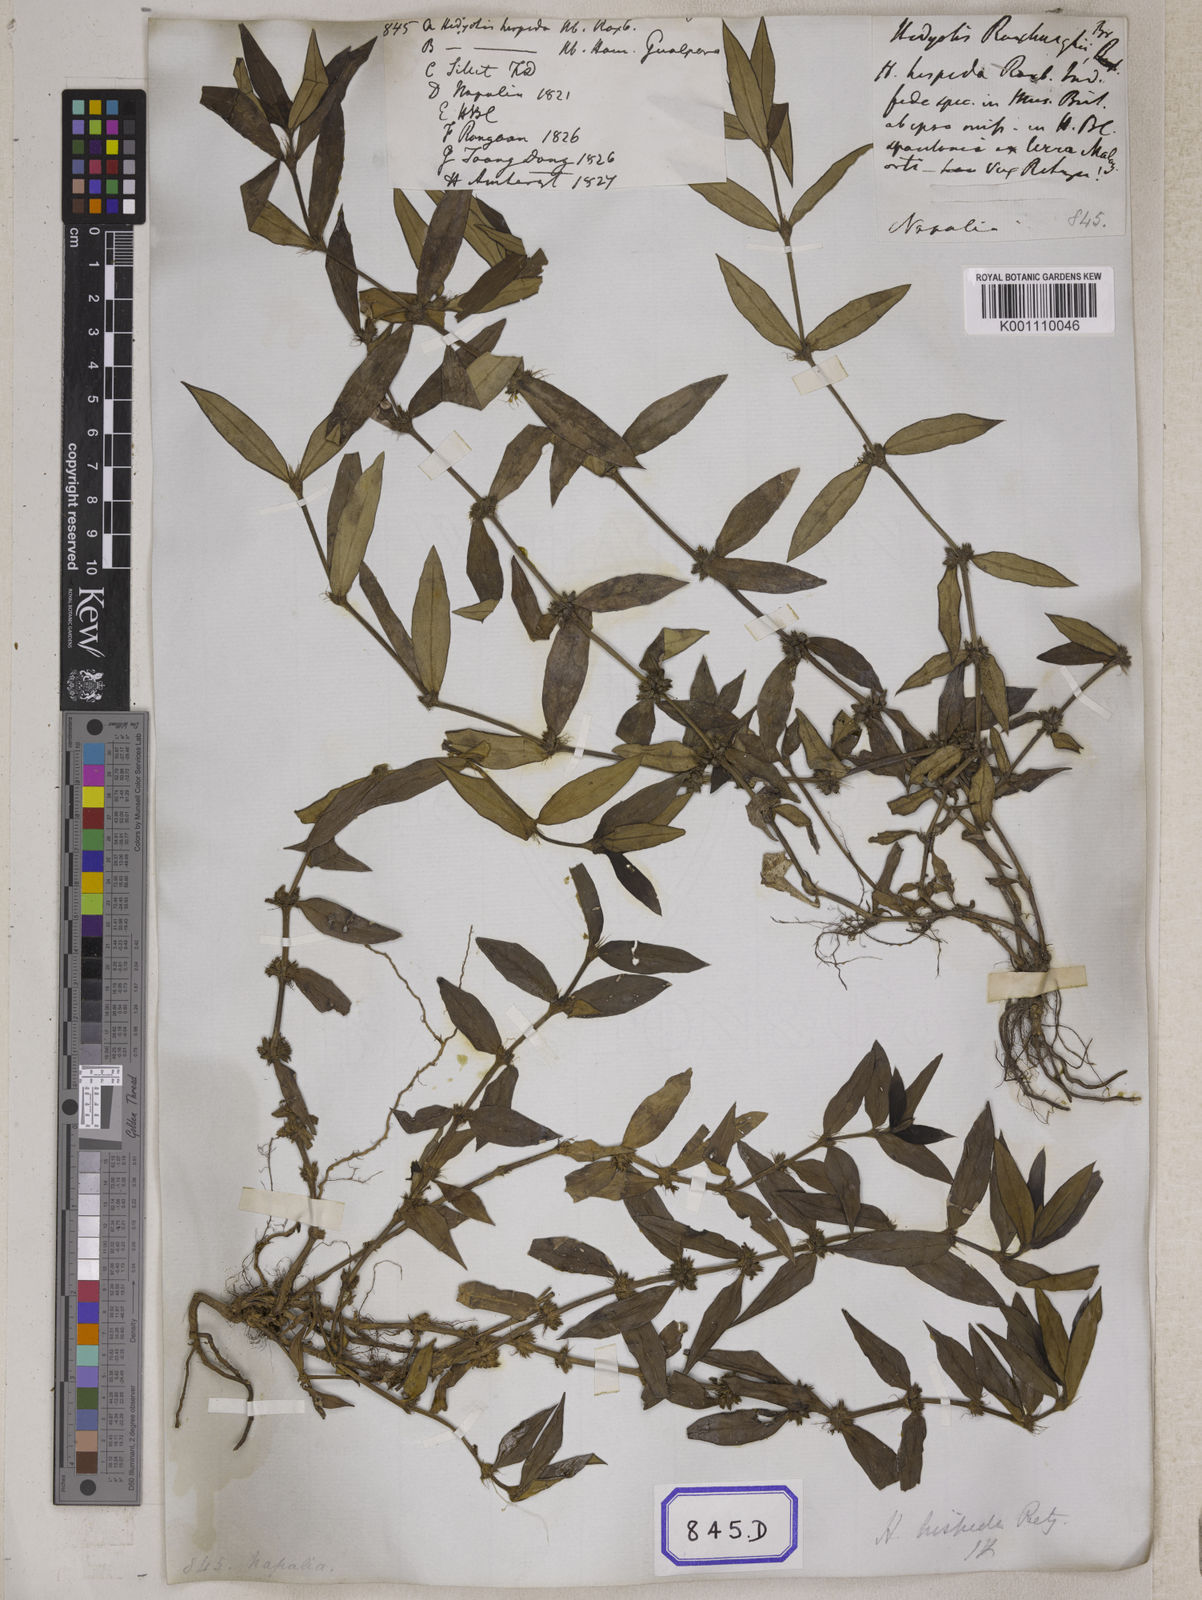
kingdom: Plantae
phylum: Tracheophyta
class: Magnoliopsida
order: Gentianales
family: Rubiaceae
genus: Scleromitrion
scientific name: Scleromitrion verticillatum
